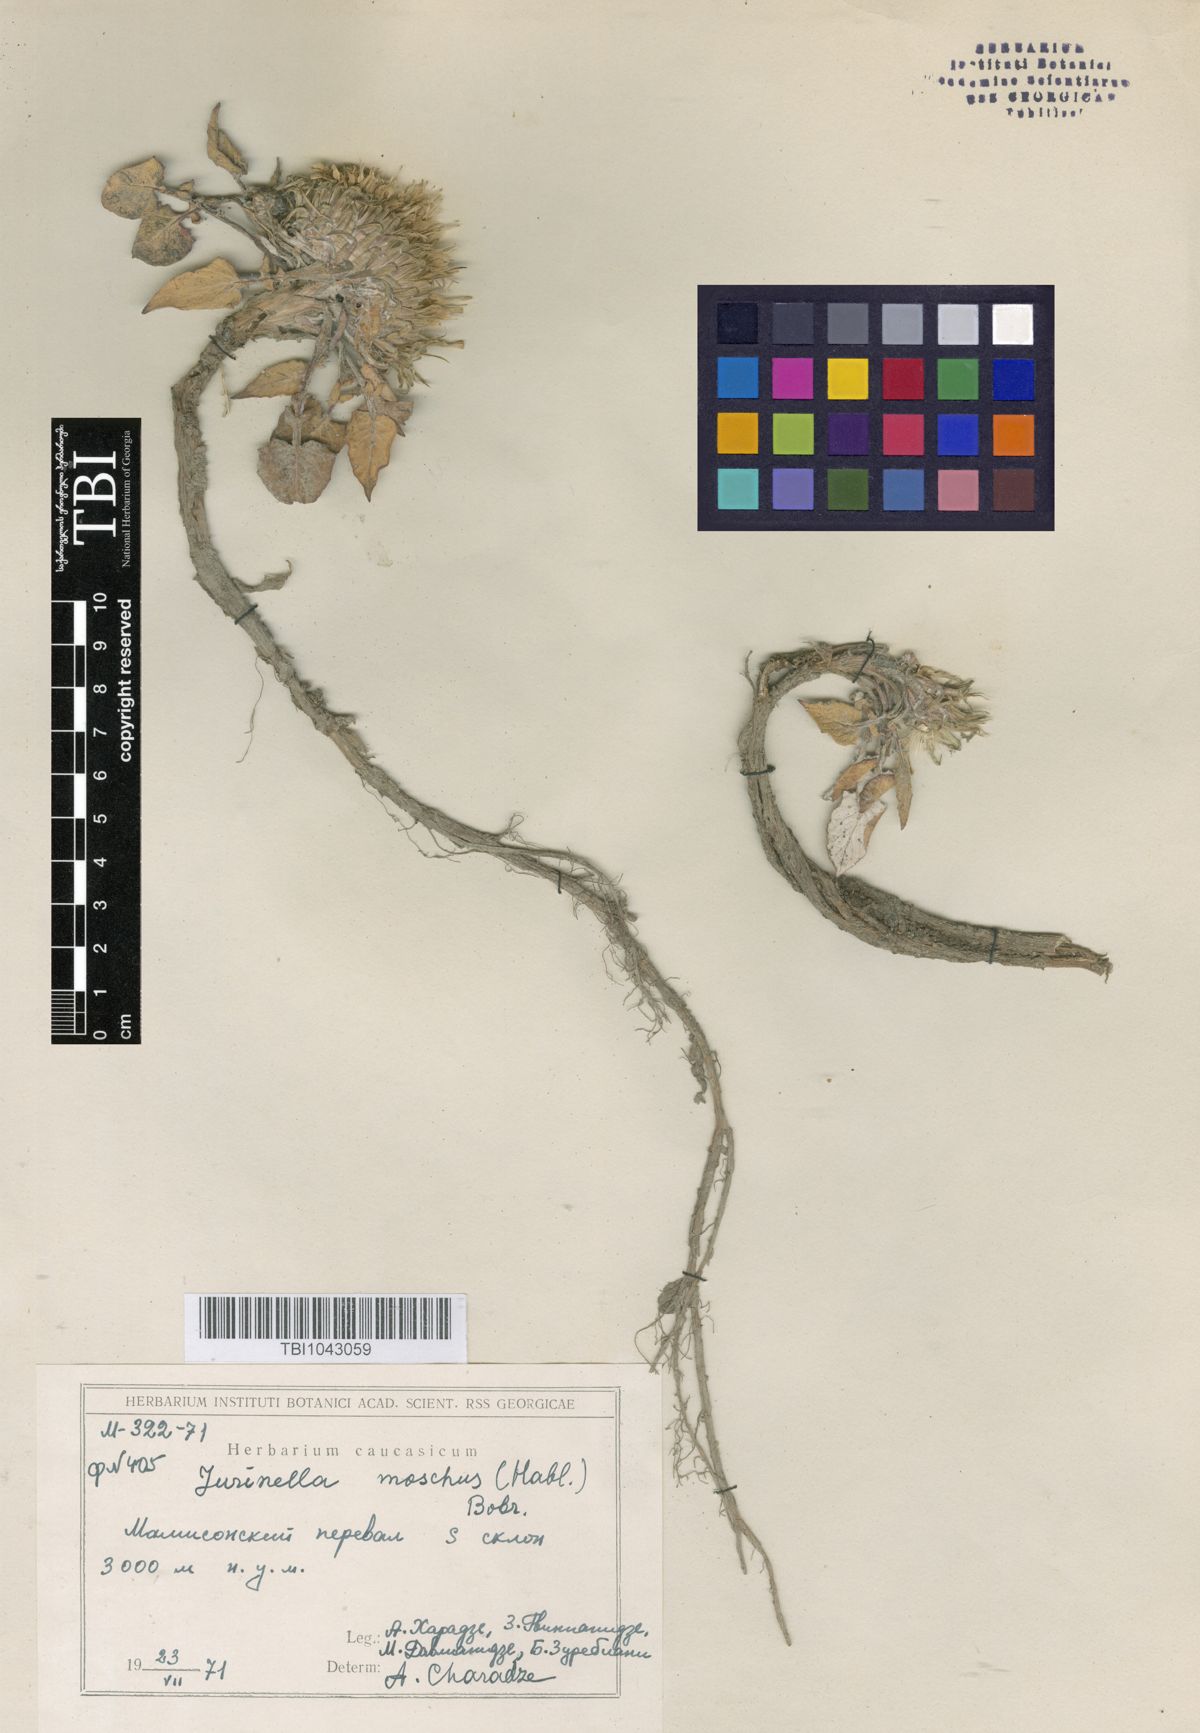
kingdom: Plantae
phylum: Tracheophyta
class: Magnoliopsida
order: Asterales
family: Asteraceae
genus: Jurinea
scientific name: Jurinea moschus
